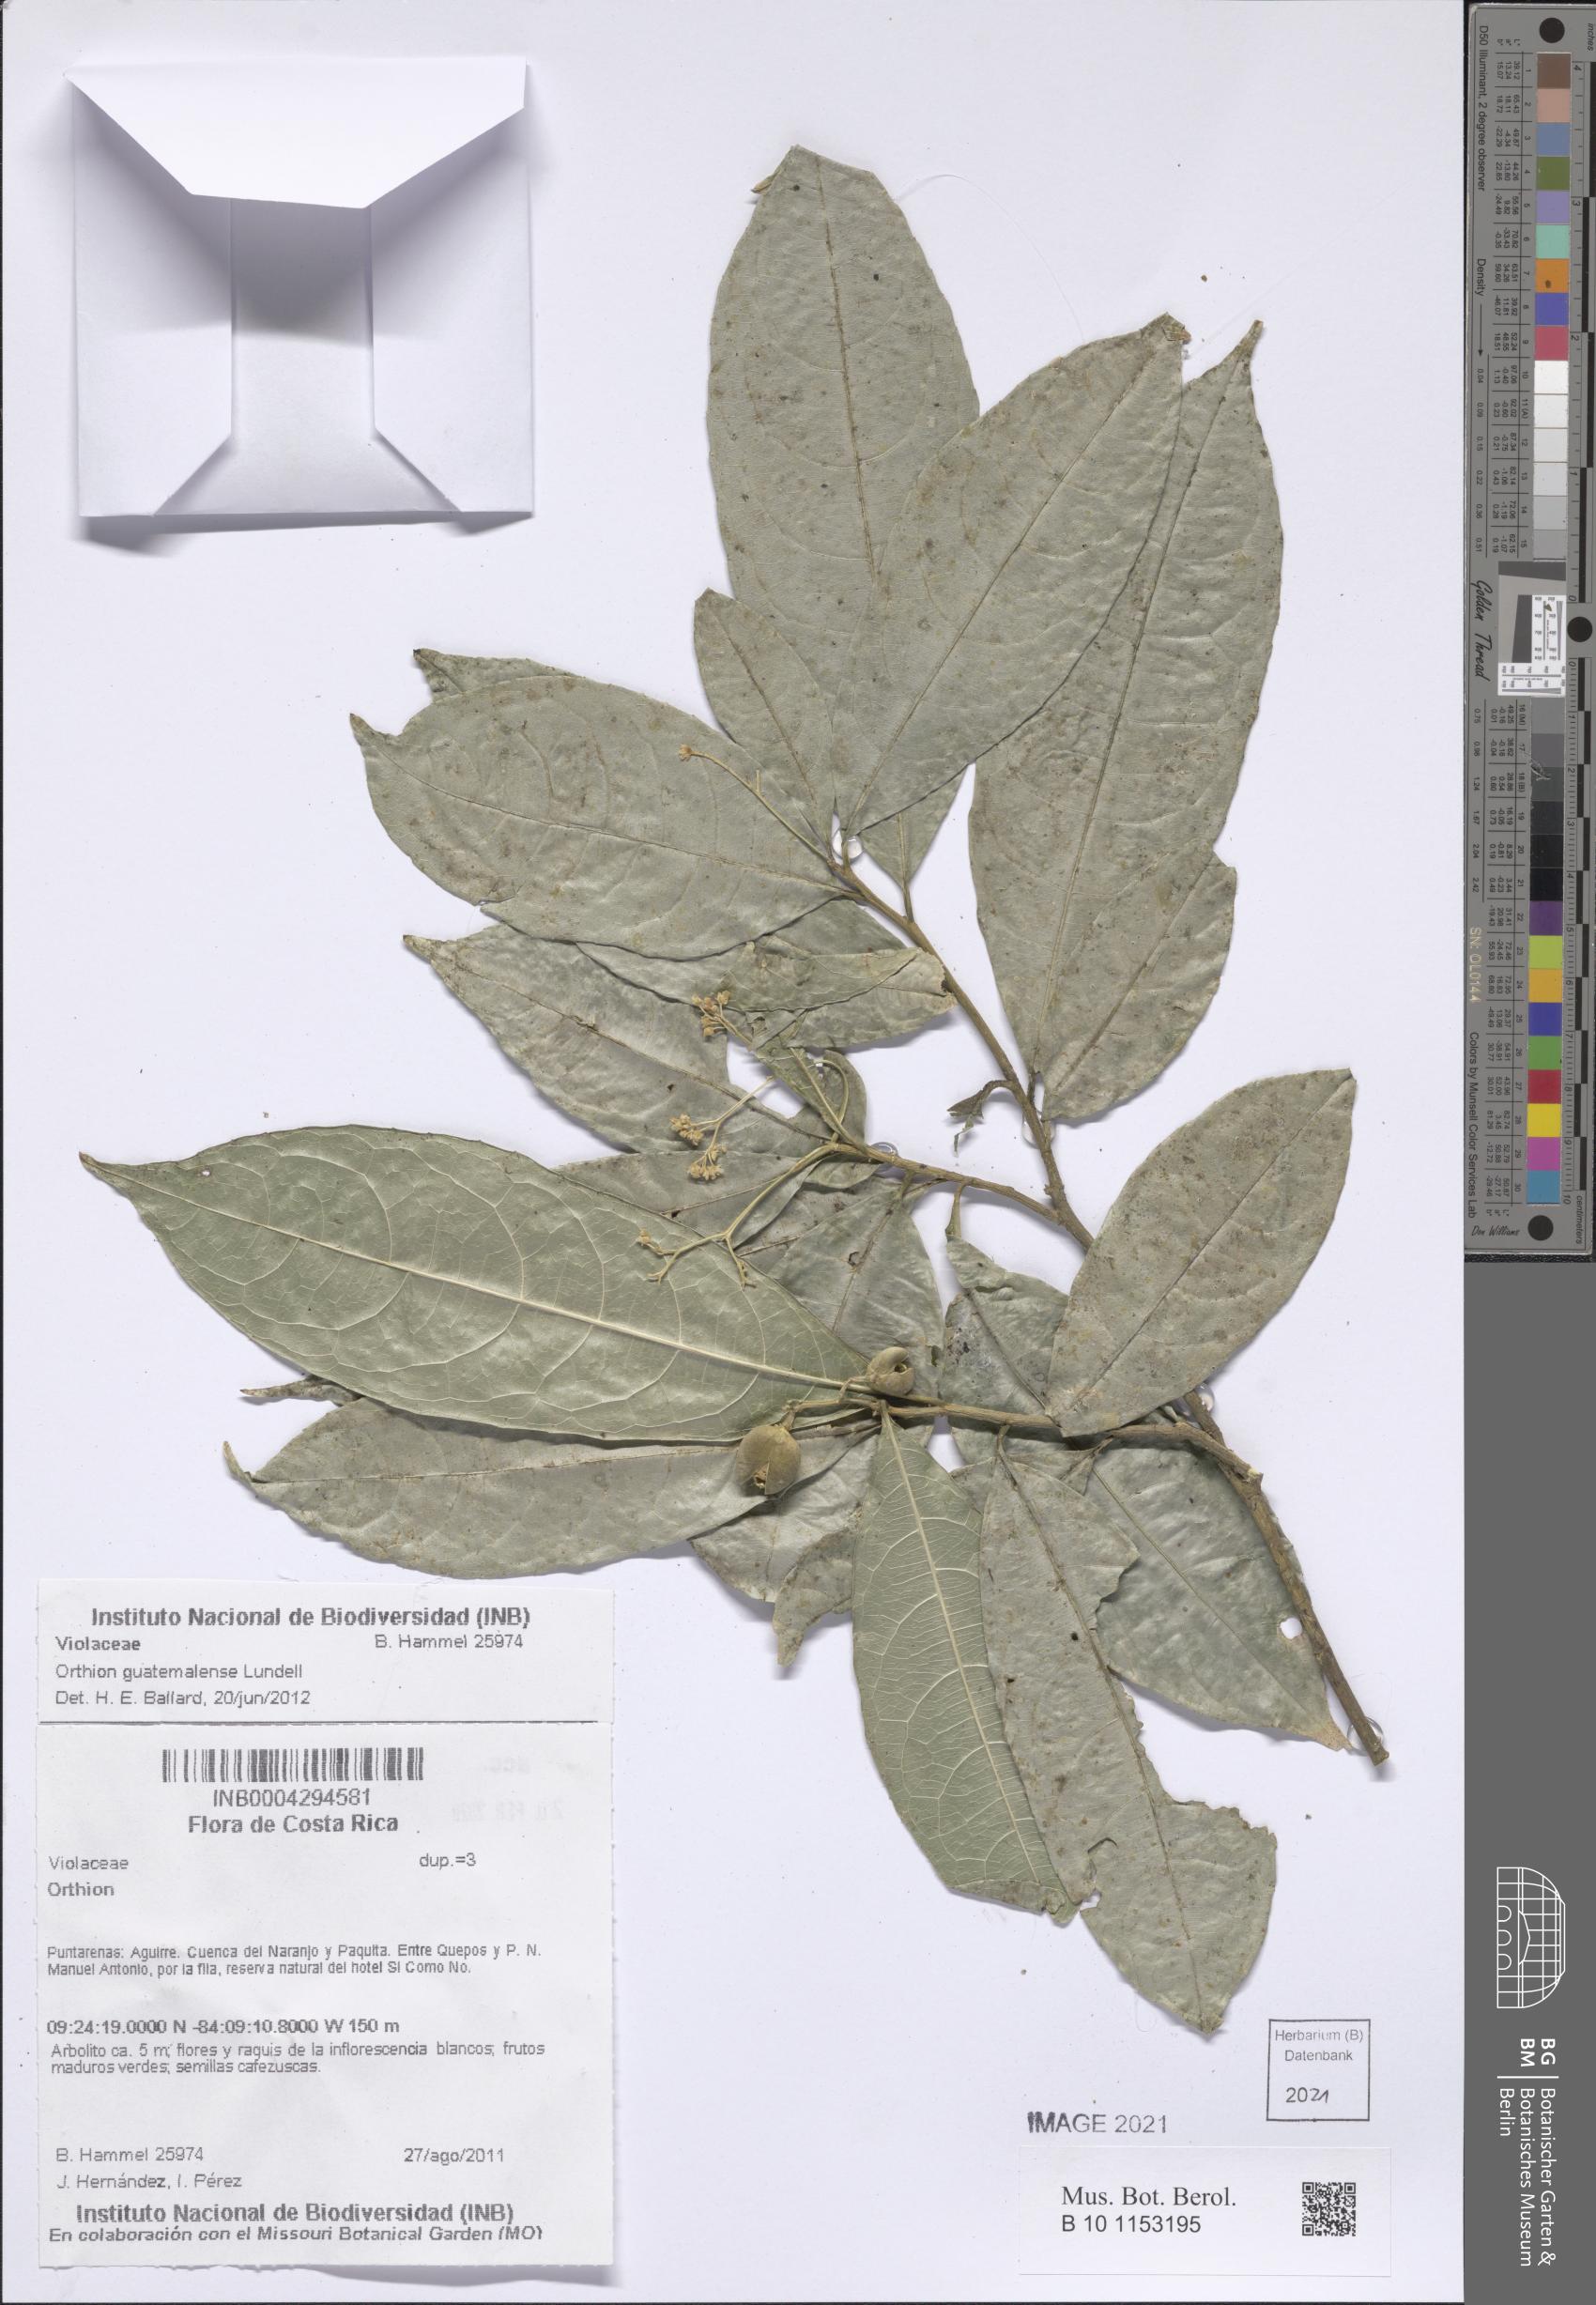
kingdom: Plantae
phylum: Tracheophyta
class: Magnoliopsida
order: Malpighiales
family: Violaceae
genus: Orthion
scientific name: Orthion guatemalense
